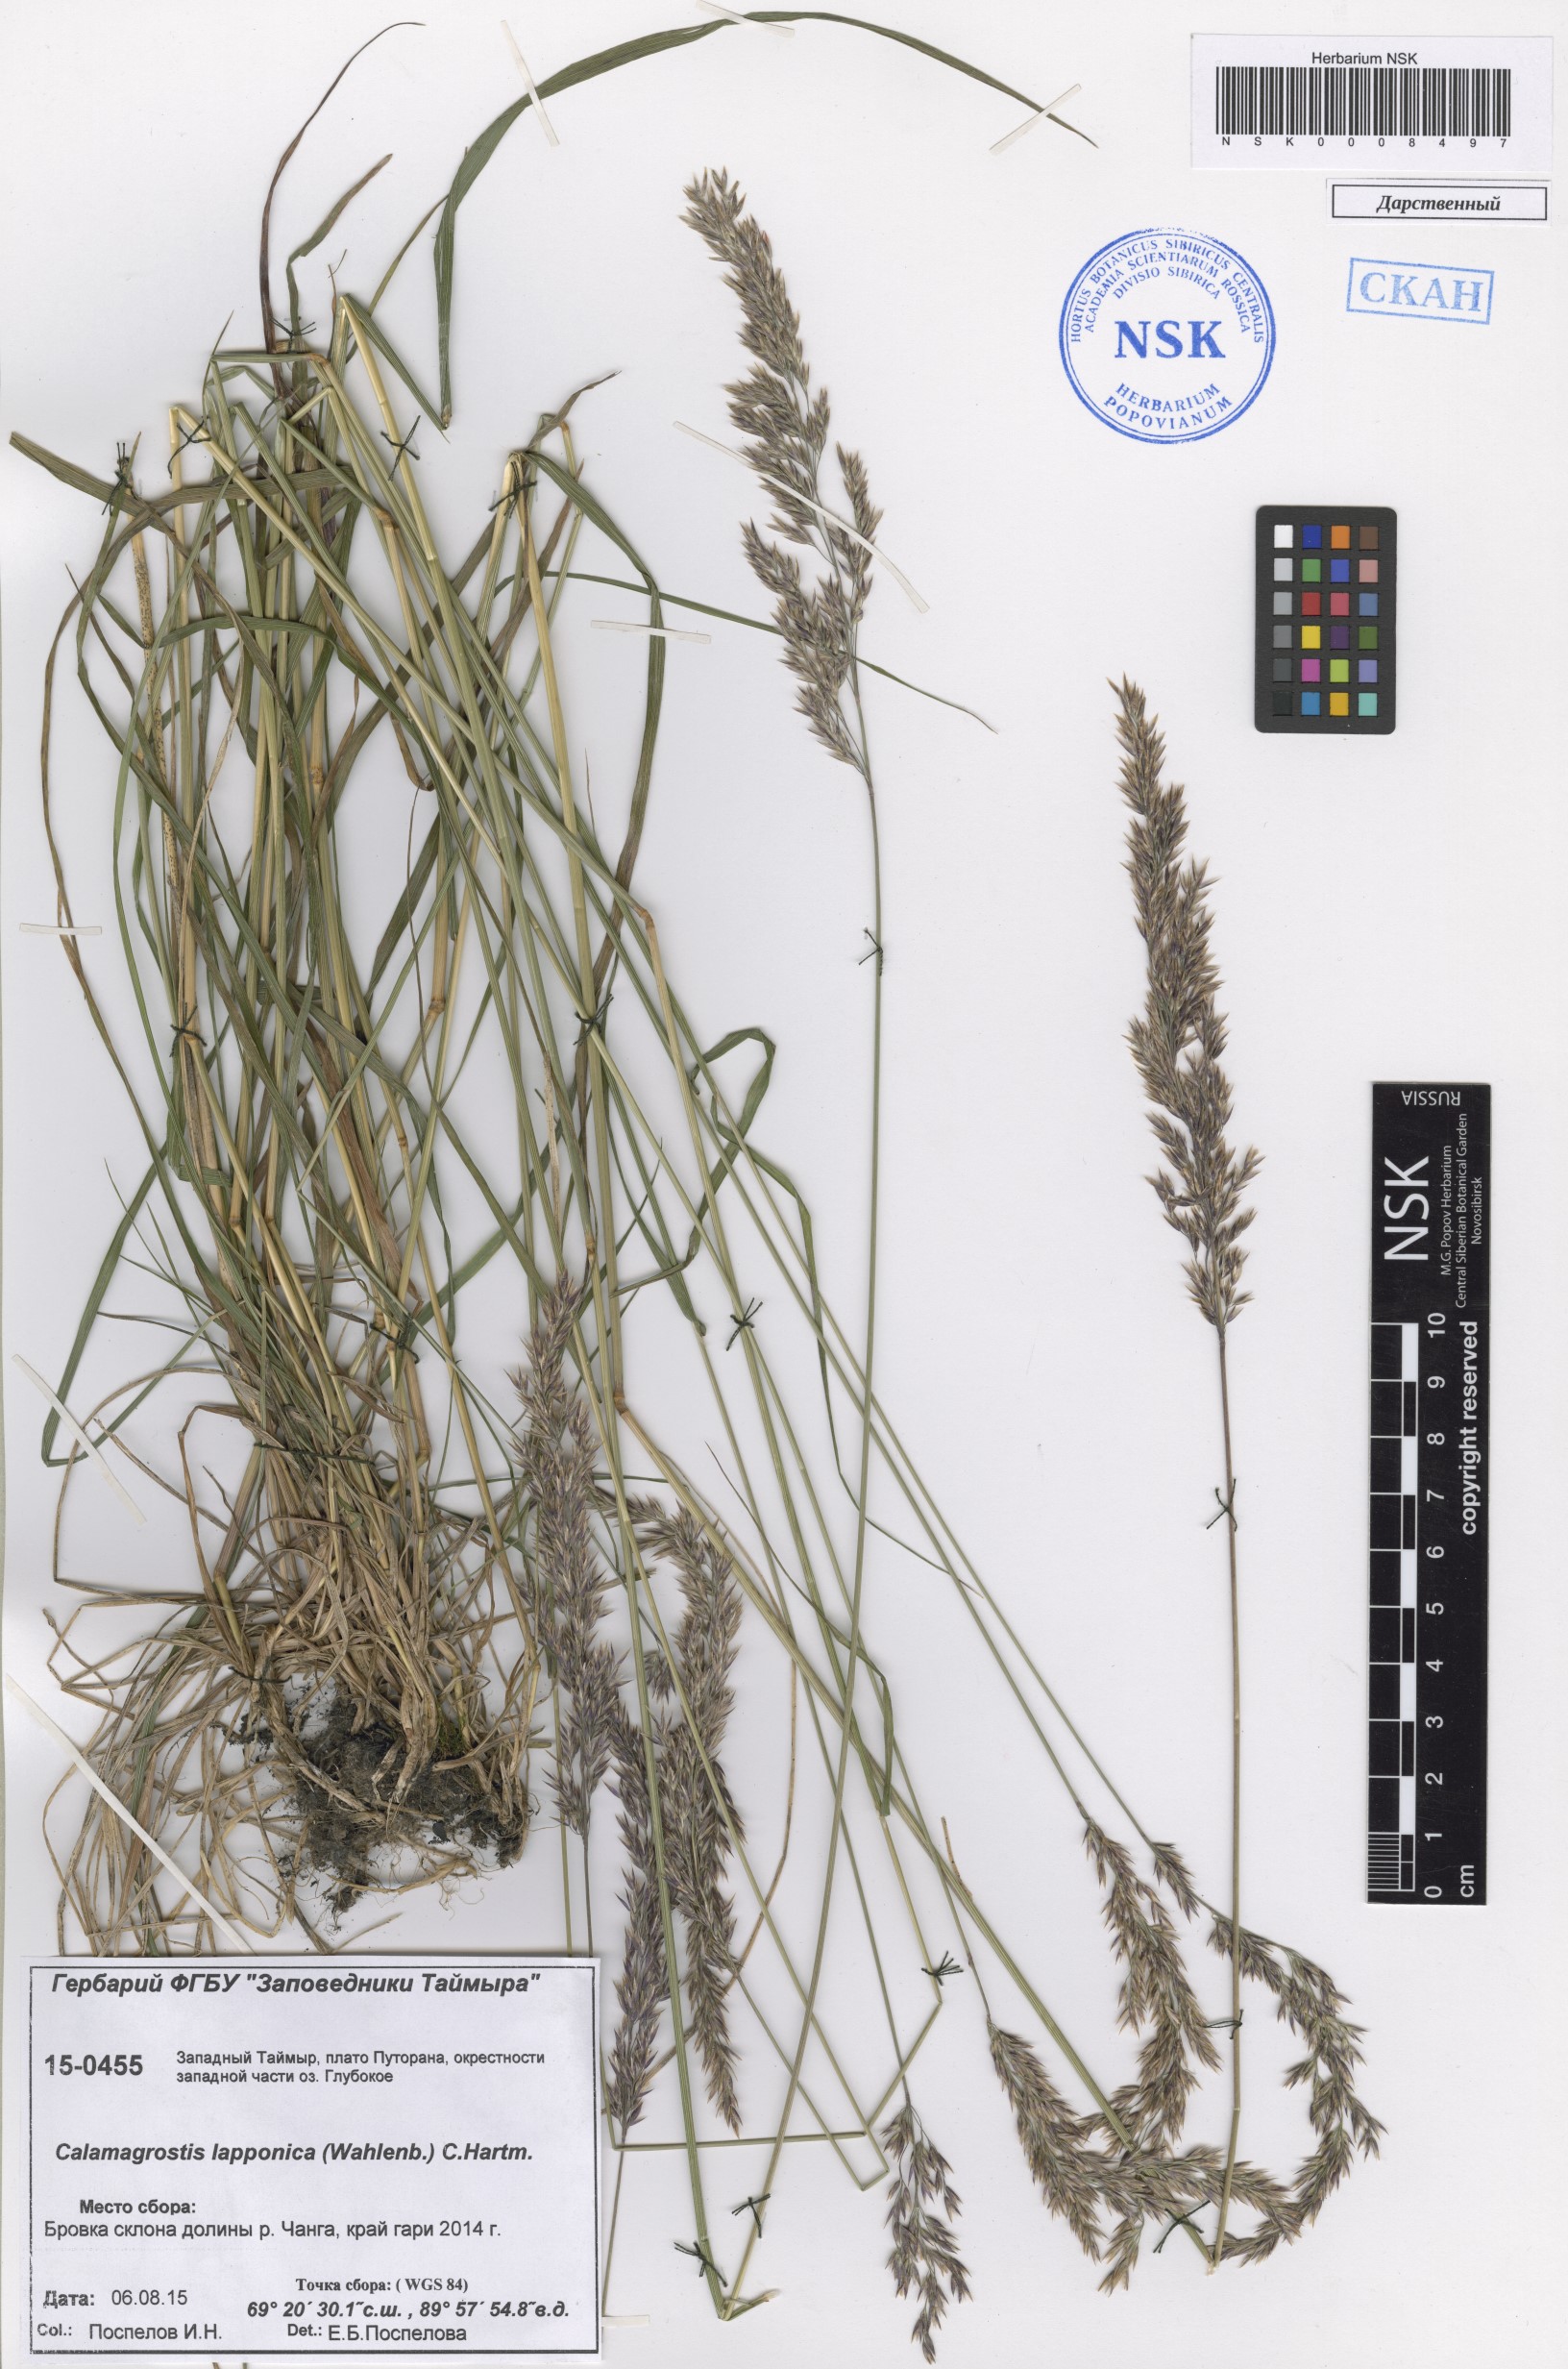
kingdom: Plantae
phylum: Tracheophyta
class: Liliopsida
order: Poales
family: Poaceae
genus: Calamagrostis
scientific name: Calamagrostis lapponica
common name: Lapland reedgrass
